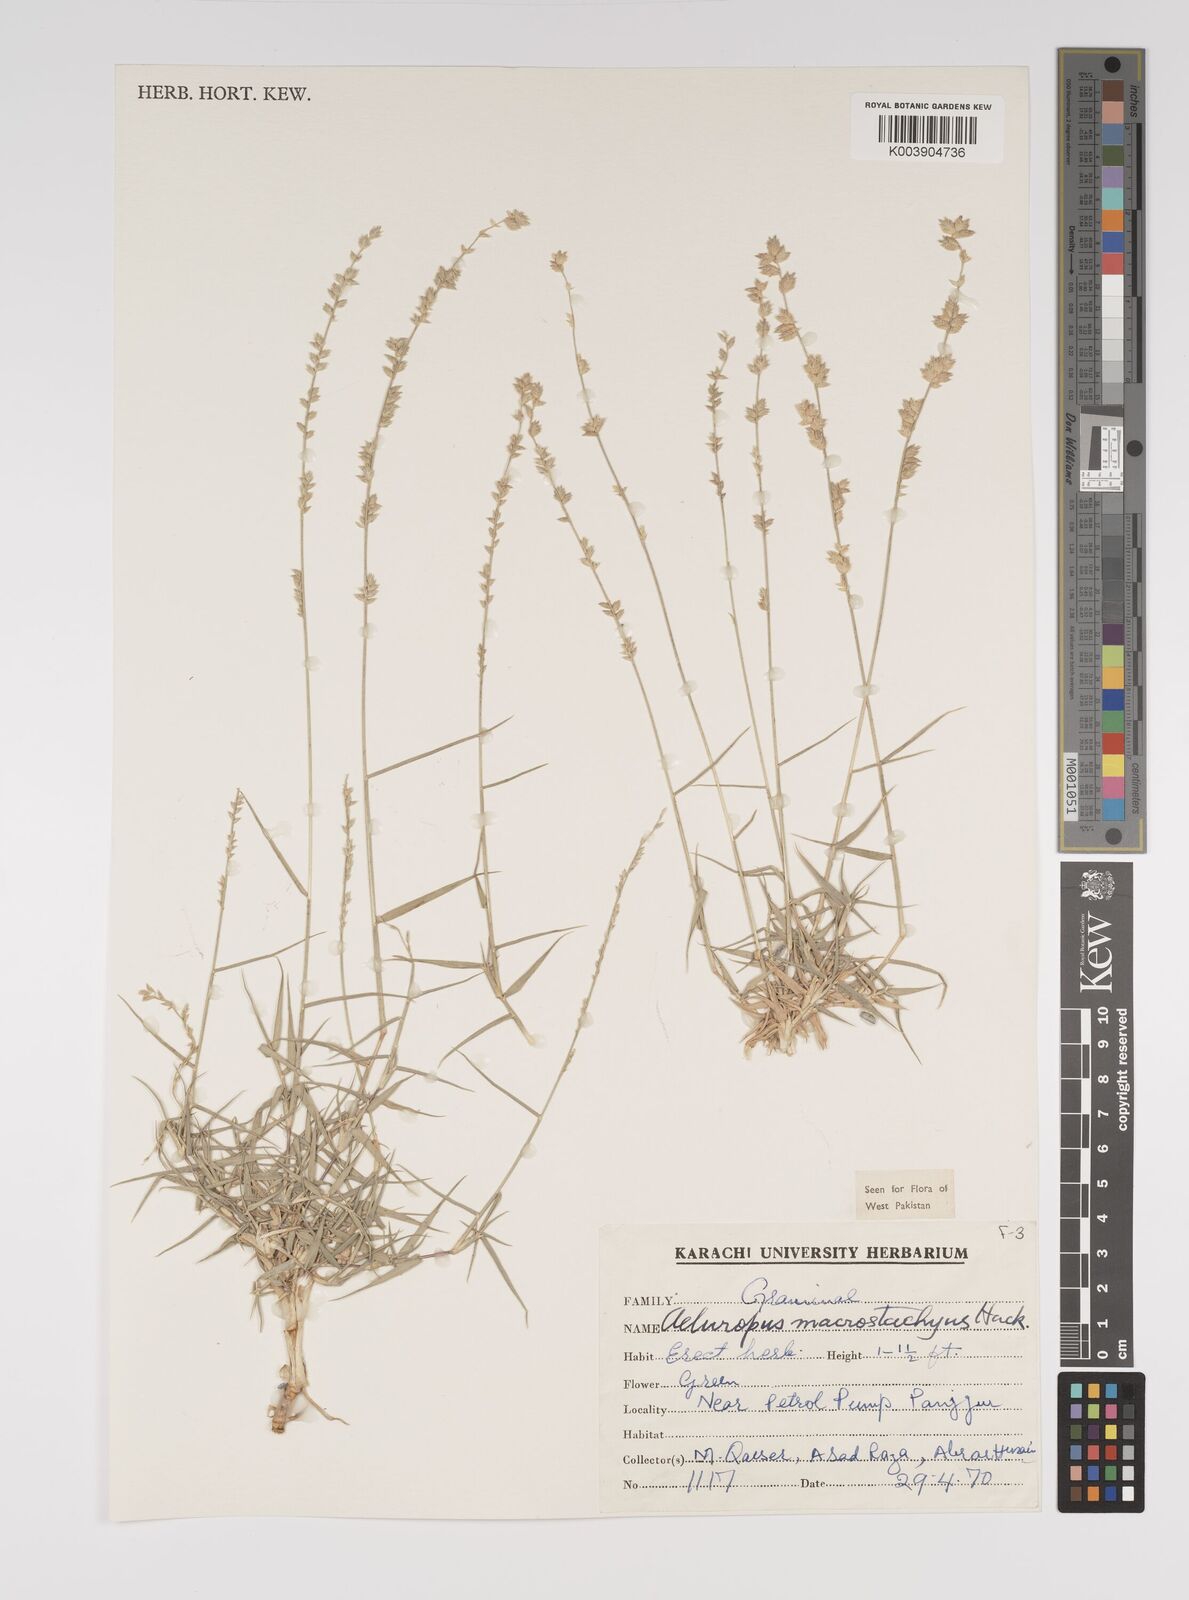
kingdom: Plantae
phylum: Tracheophyta
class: Liliopsida
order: Poales
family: Poaceae
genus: Aeluropus
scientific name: Aeluropus macrostachyus
